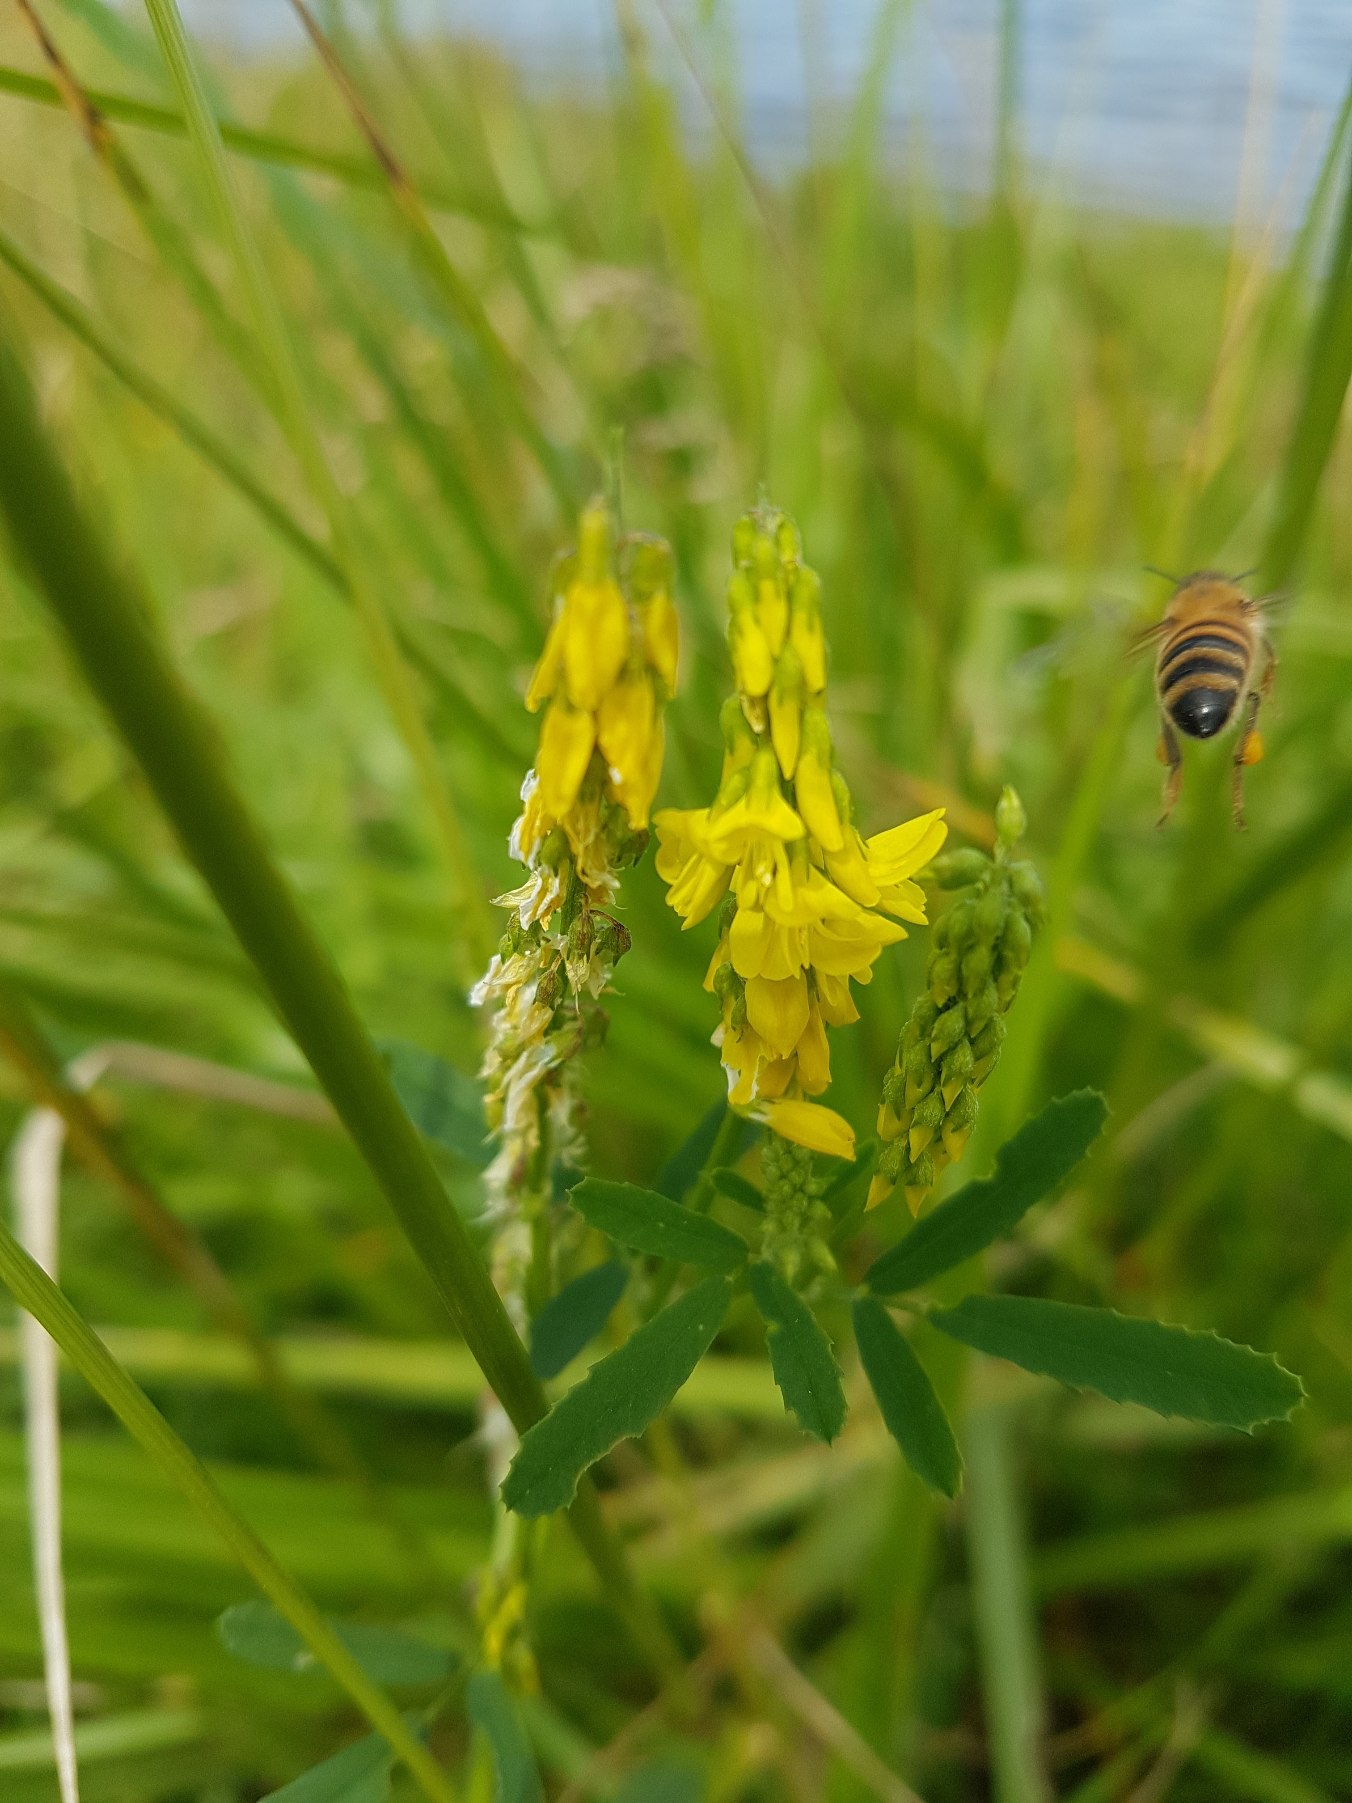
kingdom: Plantae
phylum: Tracheophyta
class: Magnoliopsida
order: Fabales
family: Fabaceae
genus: Melilotus
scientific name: Melilotus altissimus
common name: Høj stenkløver
